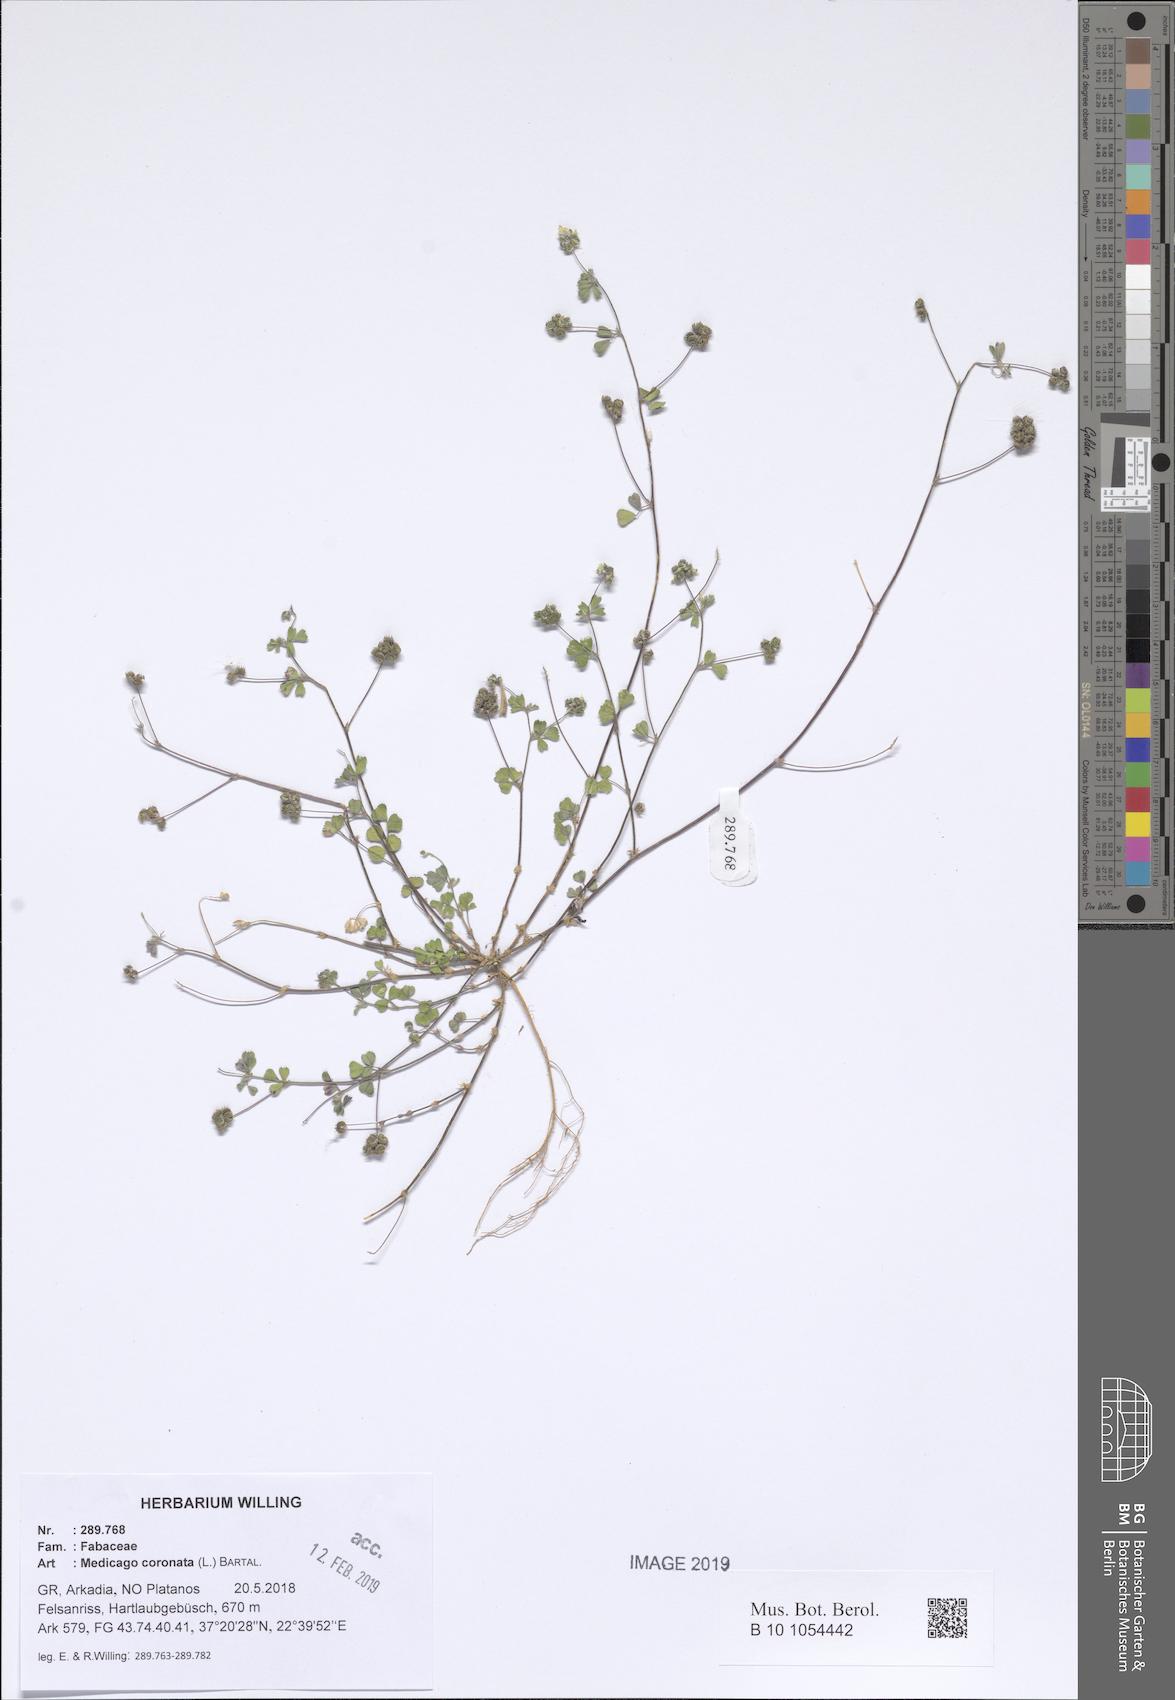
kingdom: Plantae
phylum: Tracheophyta
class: Magnoliopsida
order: Fabales
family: Fabaceae
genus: Medicago
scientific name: Medicago coronata
